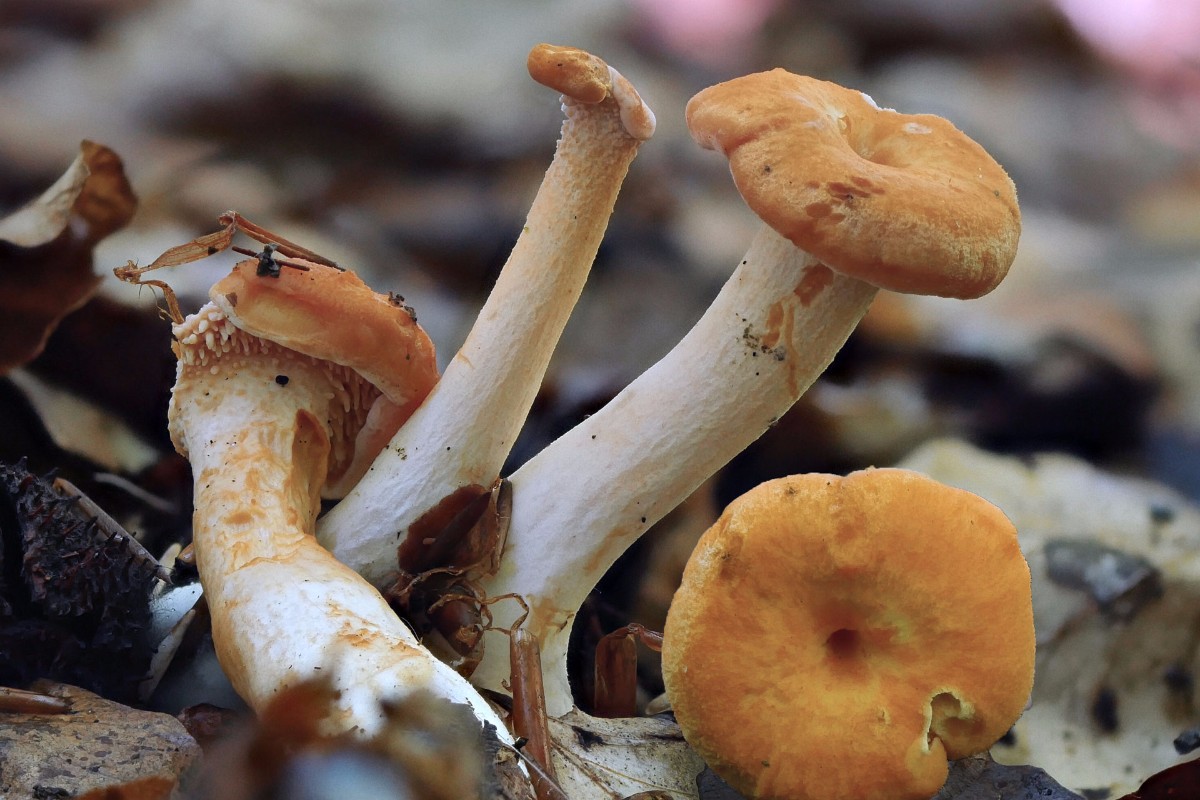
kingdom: Fungi
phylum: Basidiomycota
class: Agaricomycetes
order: Cantharellales
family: Hydnaceae
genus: Hydnum
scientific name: Hydnum
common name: pigsvamp
